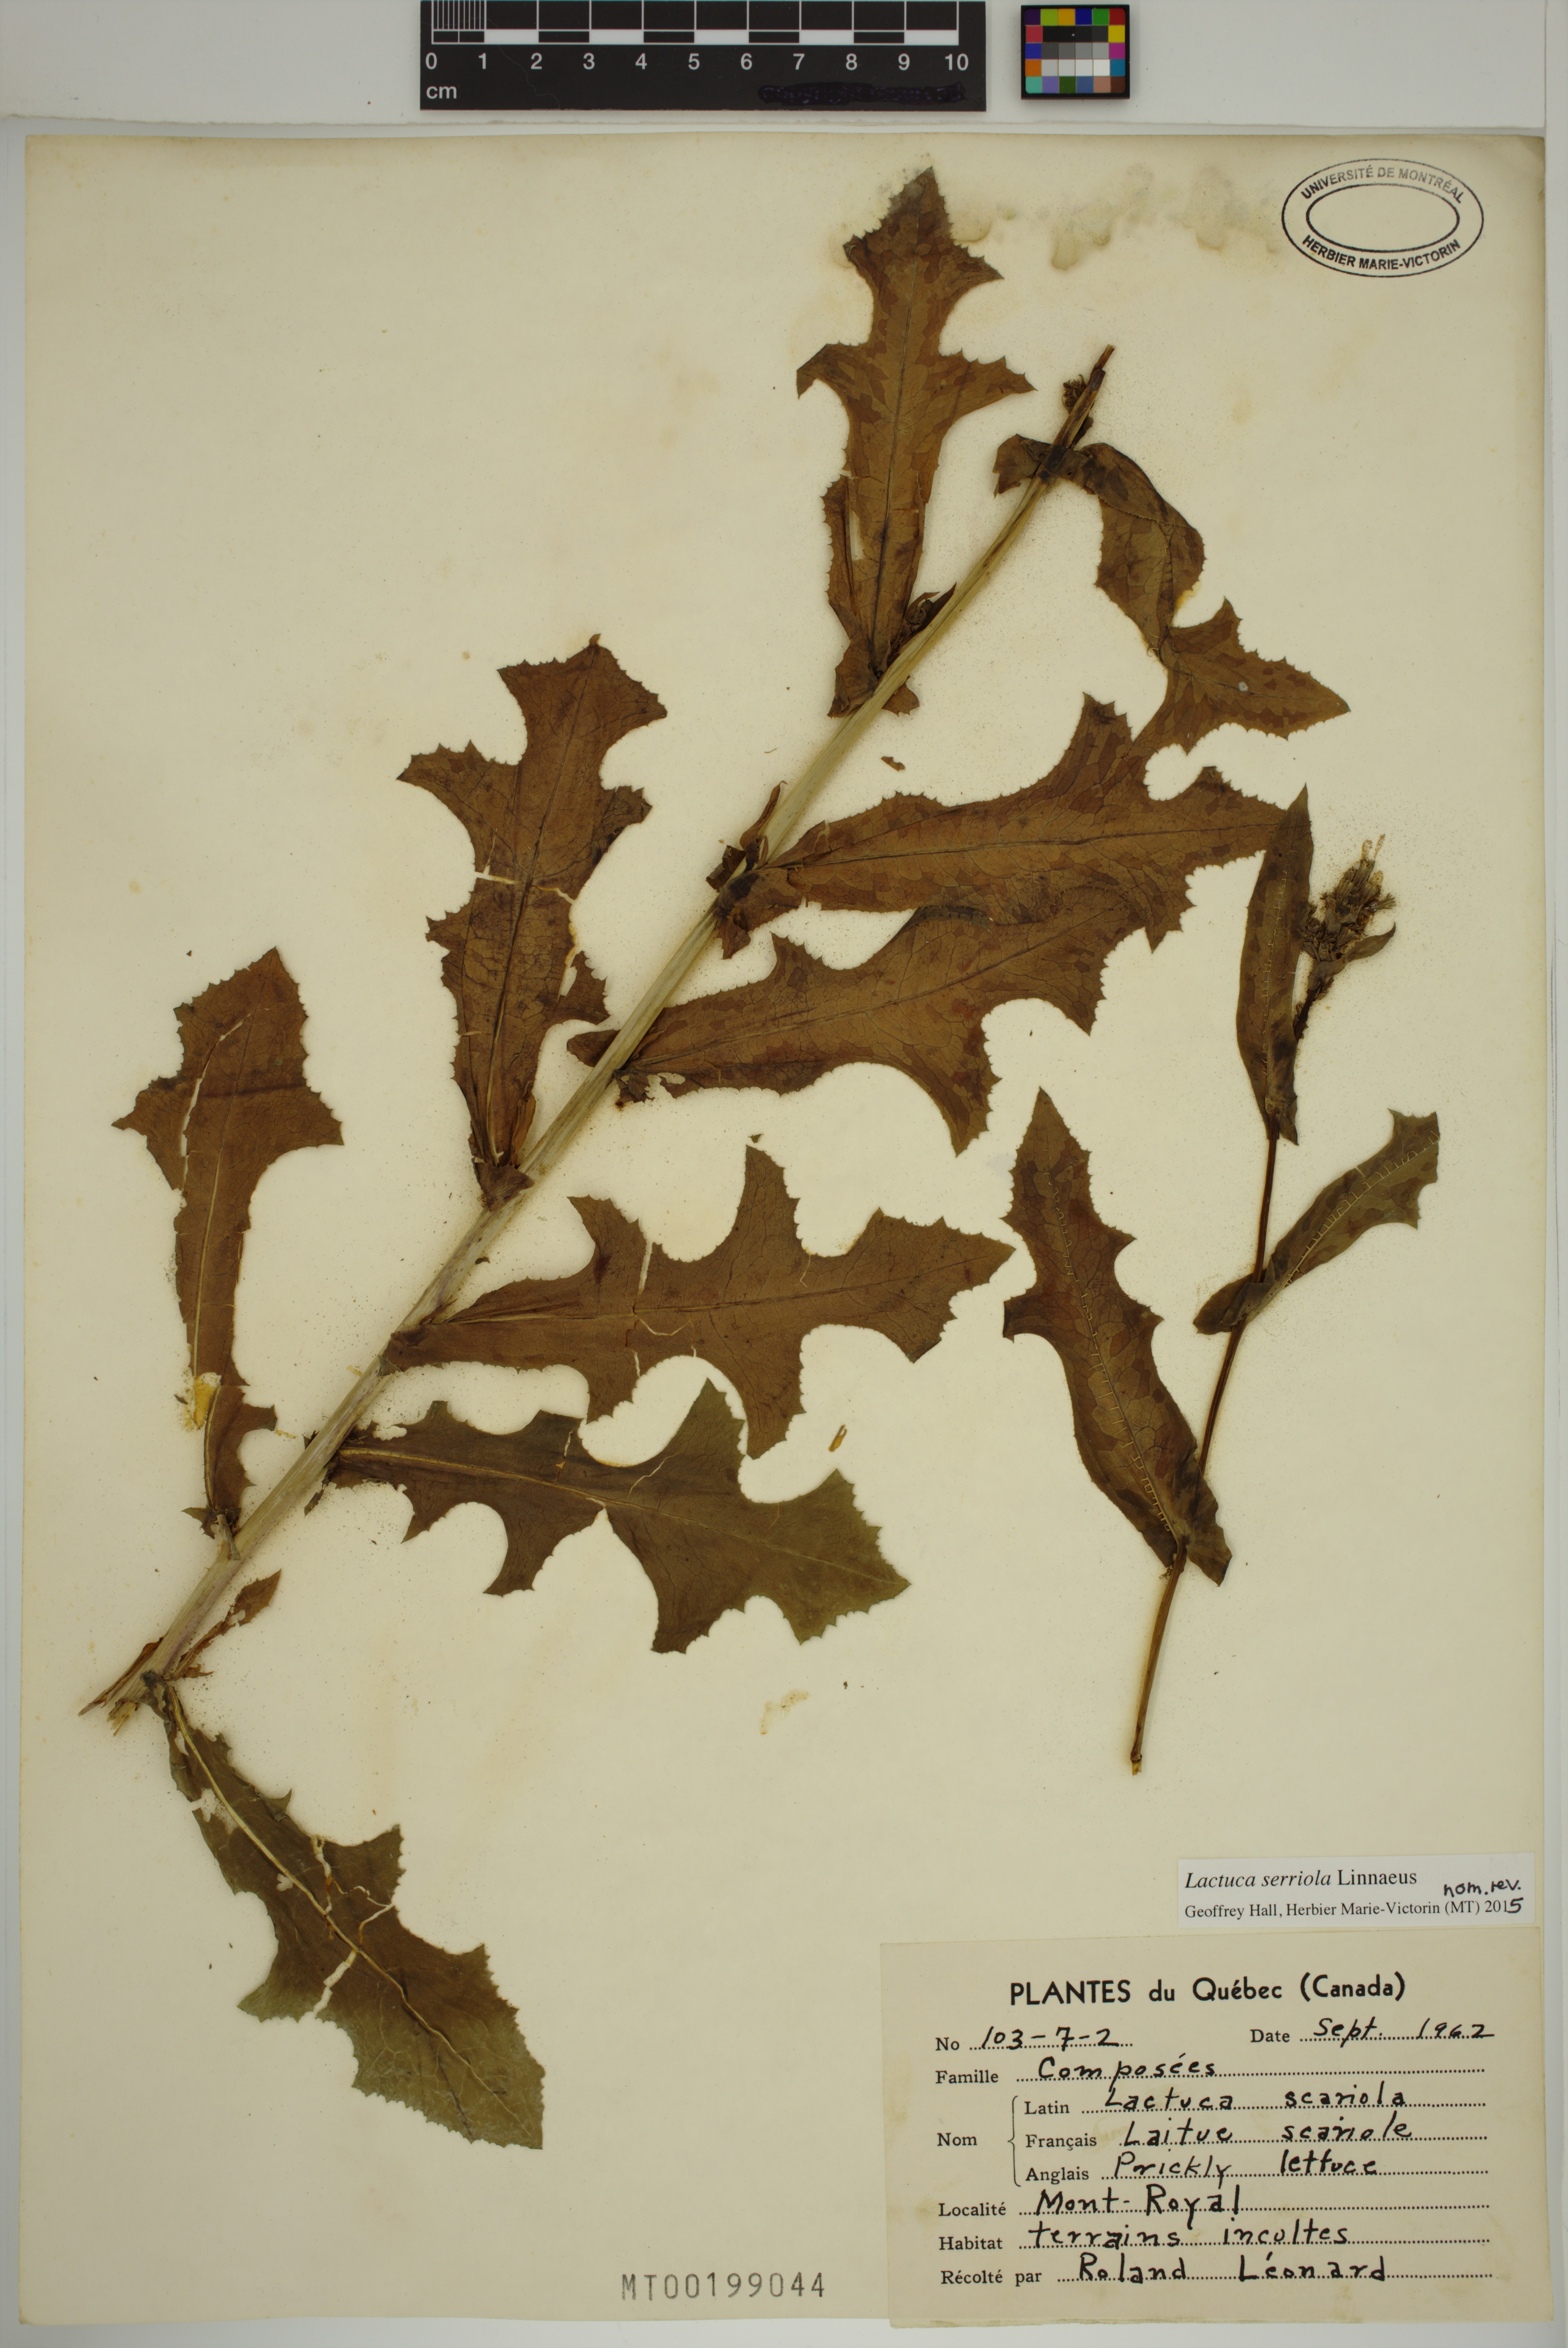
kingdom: Plantae
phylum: Tracheophyta
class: Magnoliopsida
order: Asterales
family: Asteraceae
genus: Lactuca
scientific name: Lactuca serriola
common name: Prickly lettuce
